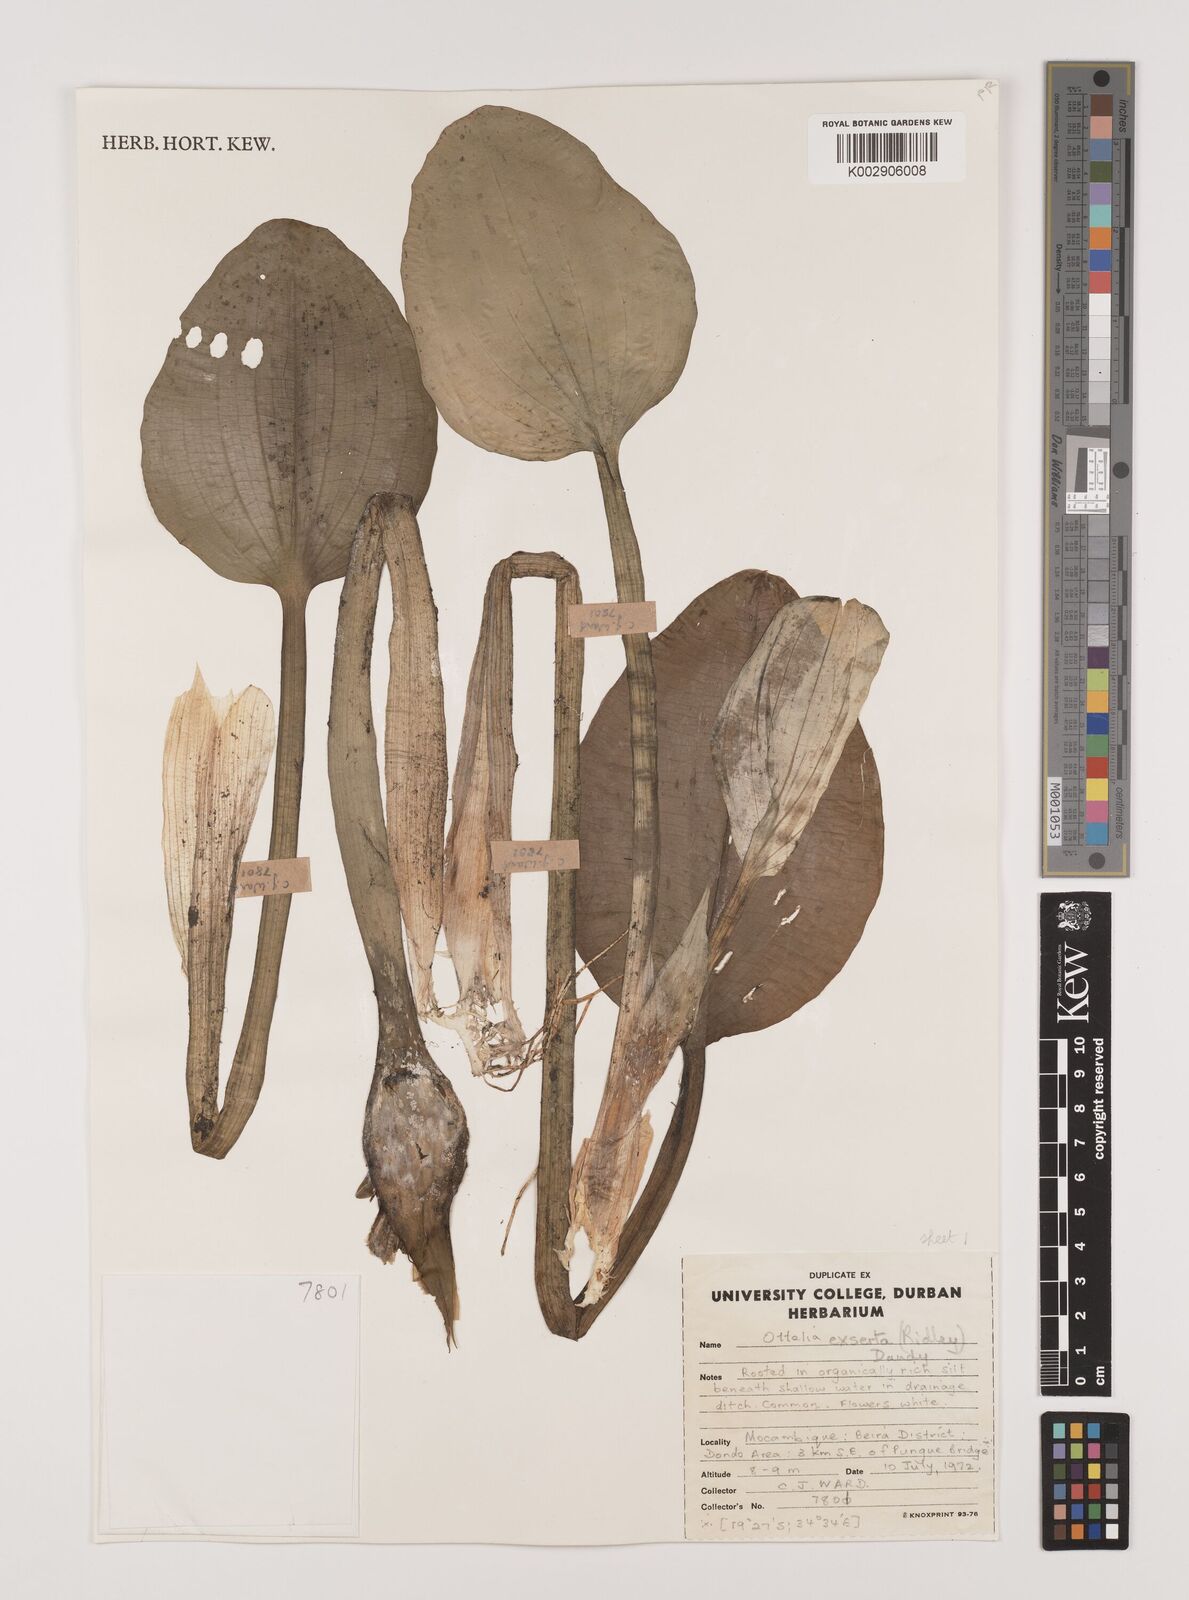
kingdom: Plantae
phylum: Tracheophyta
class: Liliopsida
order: Alismatales
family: Hydrocharitaceae
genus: Ottelia
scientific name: Ottelia exserta
